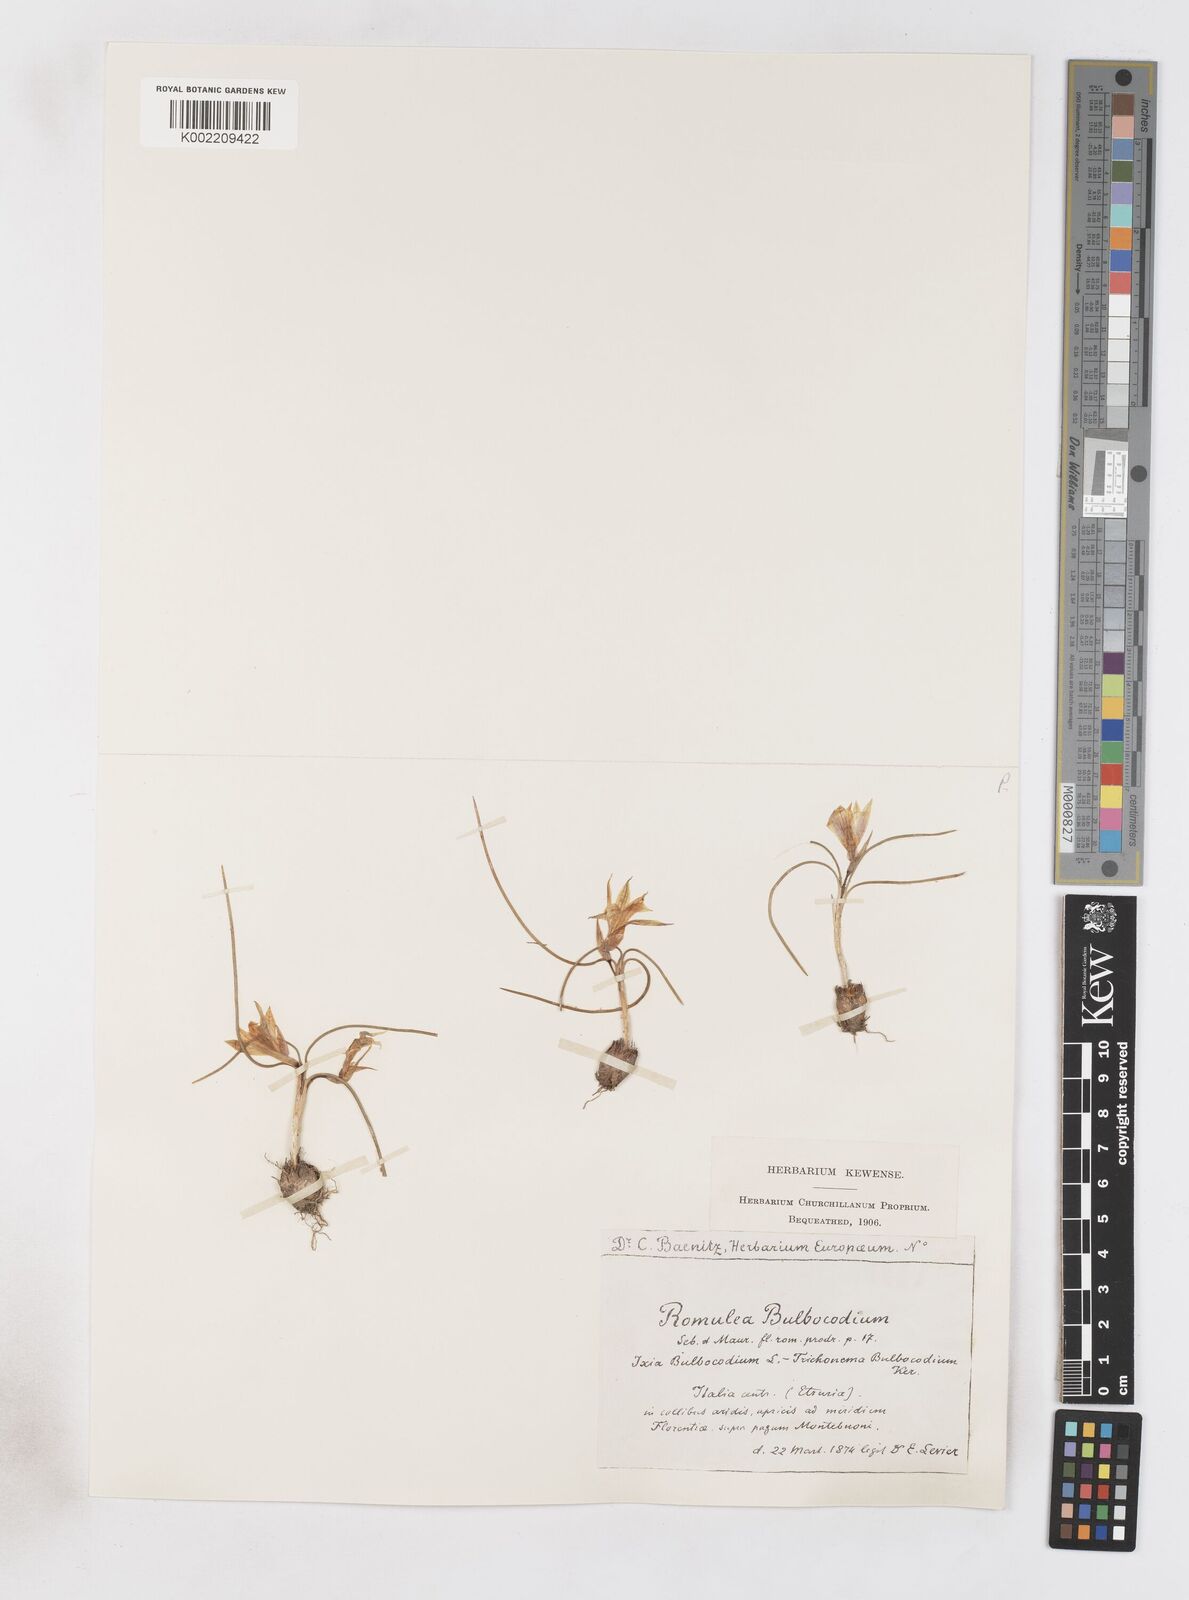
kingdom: Plantae
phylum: Tracheophyta
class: Liliopsida
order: Asparagales
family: Iridaceae
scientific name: Iridaceae
